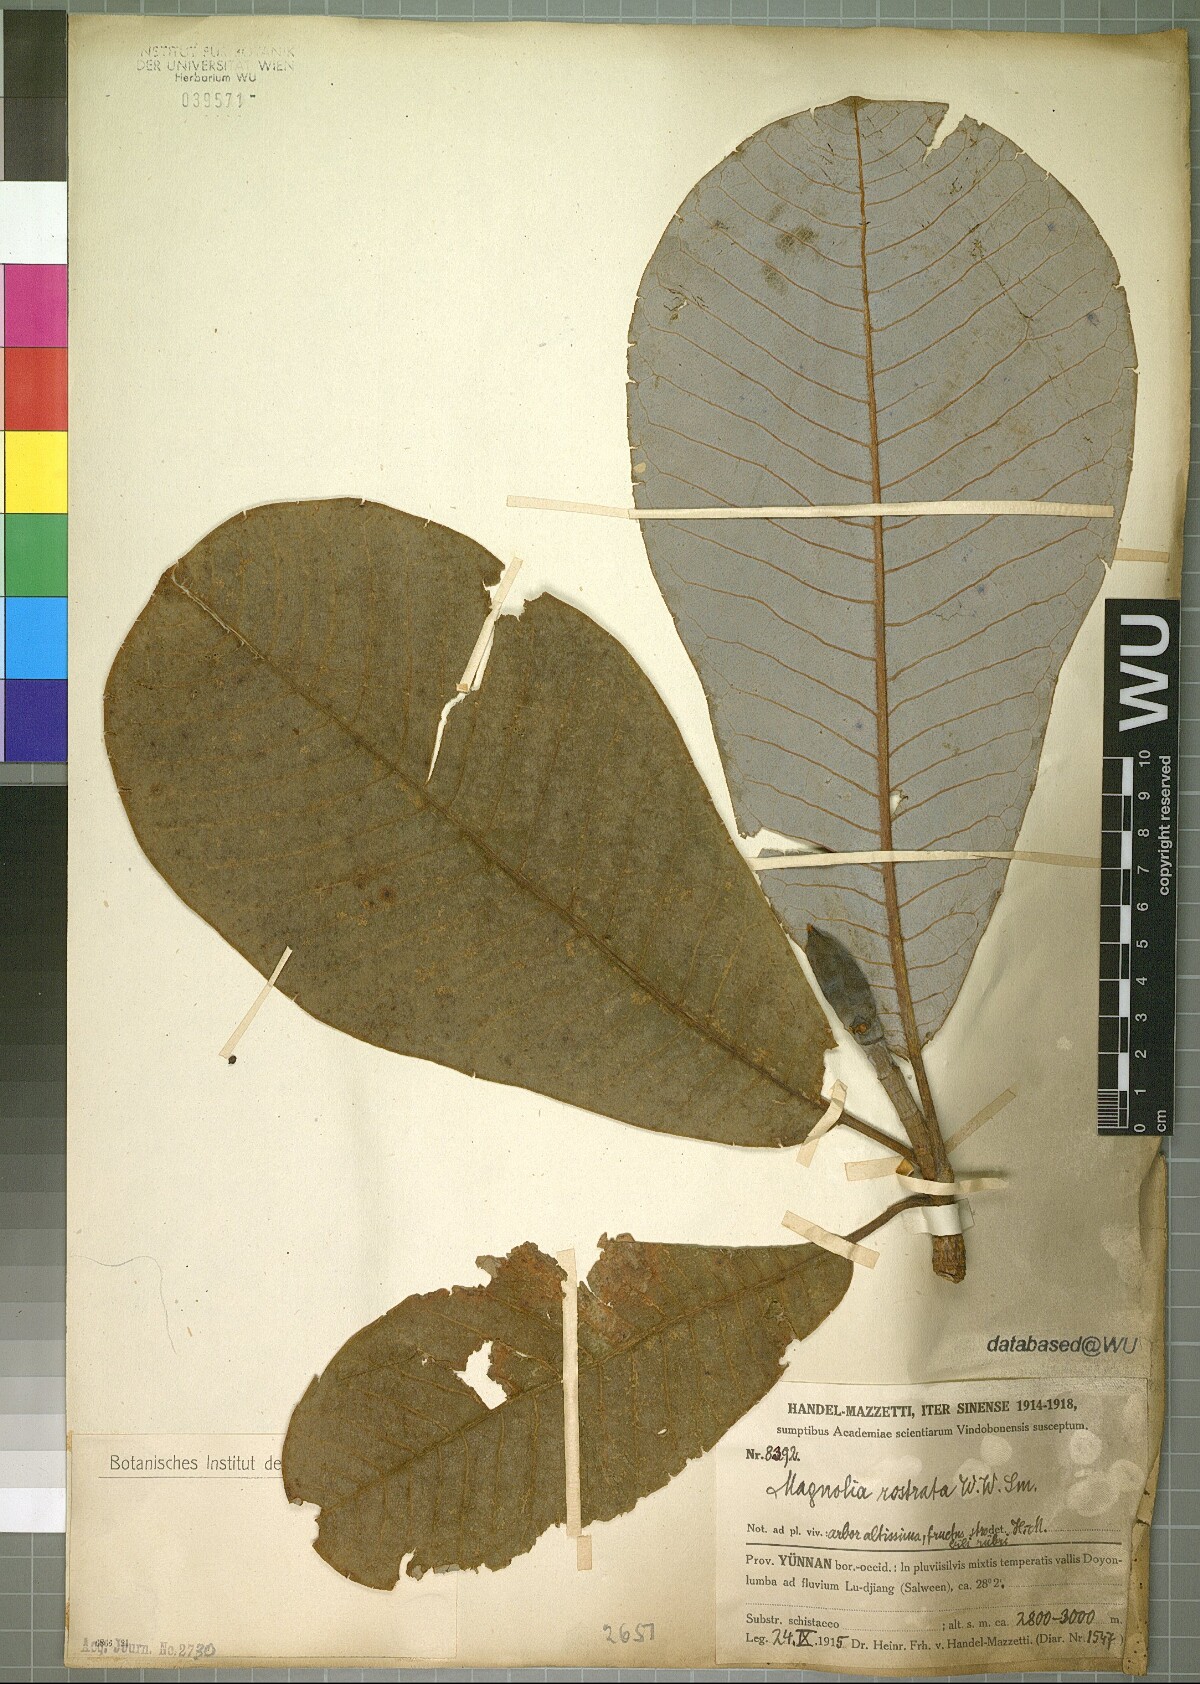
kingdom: Plantae
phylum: Tracheophyta
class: Magnoliopsida
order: Magnoliales
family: Magnoliaceae
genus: Magnolia
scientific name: Magnolia rostrata
